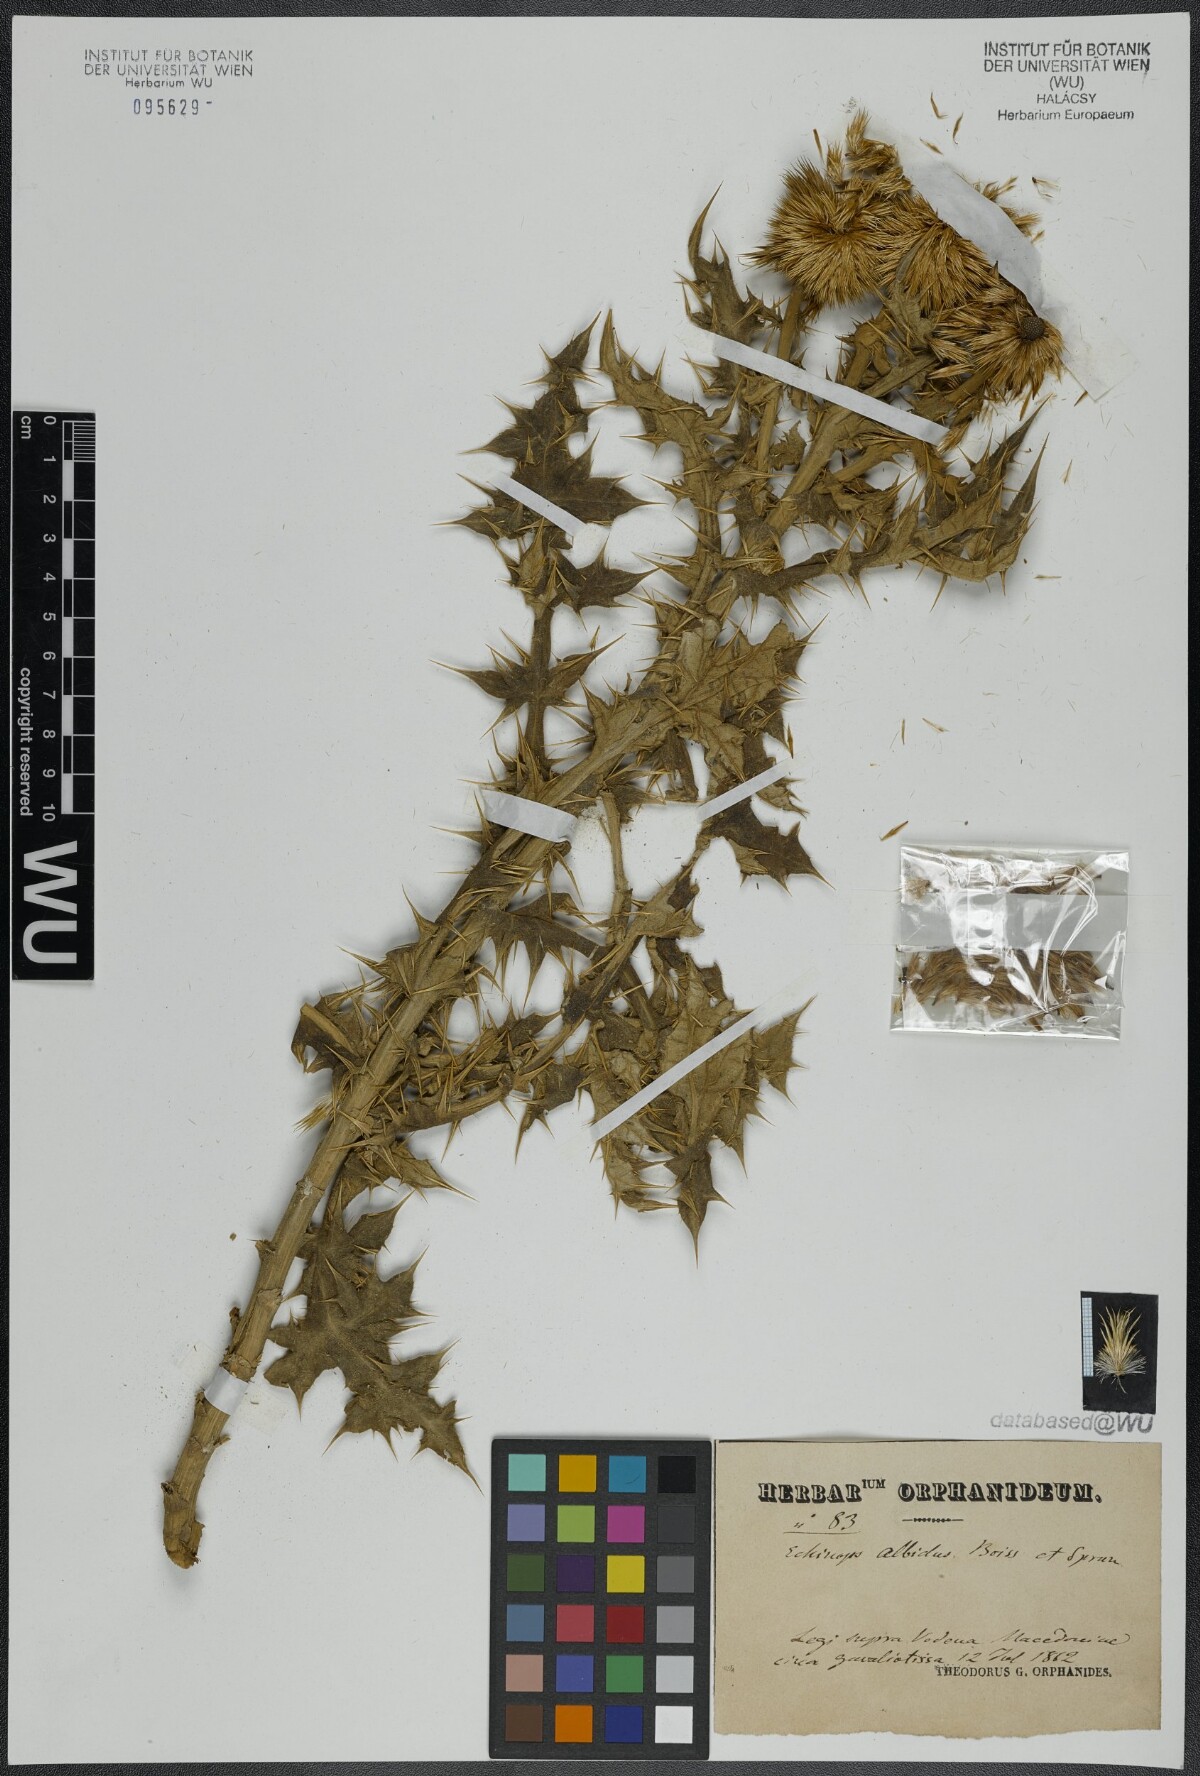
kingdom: Plantae
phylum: Tracheophyta
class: Magnoliopsida
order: Asterales
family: Asteraceae
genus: Echinops
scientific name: Echinops sphaerocephalus
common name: Glandular globe-thistle
